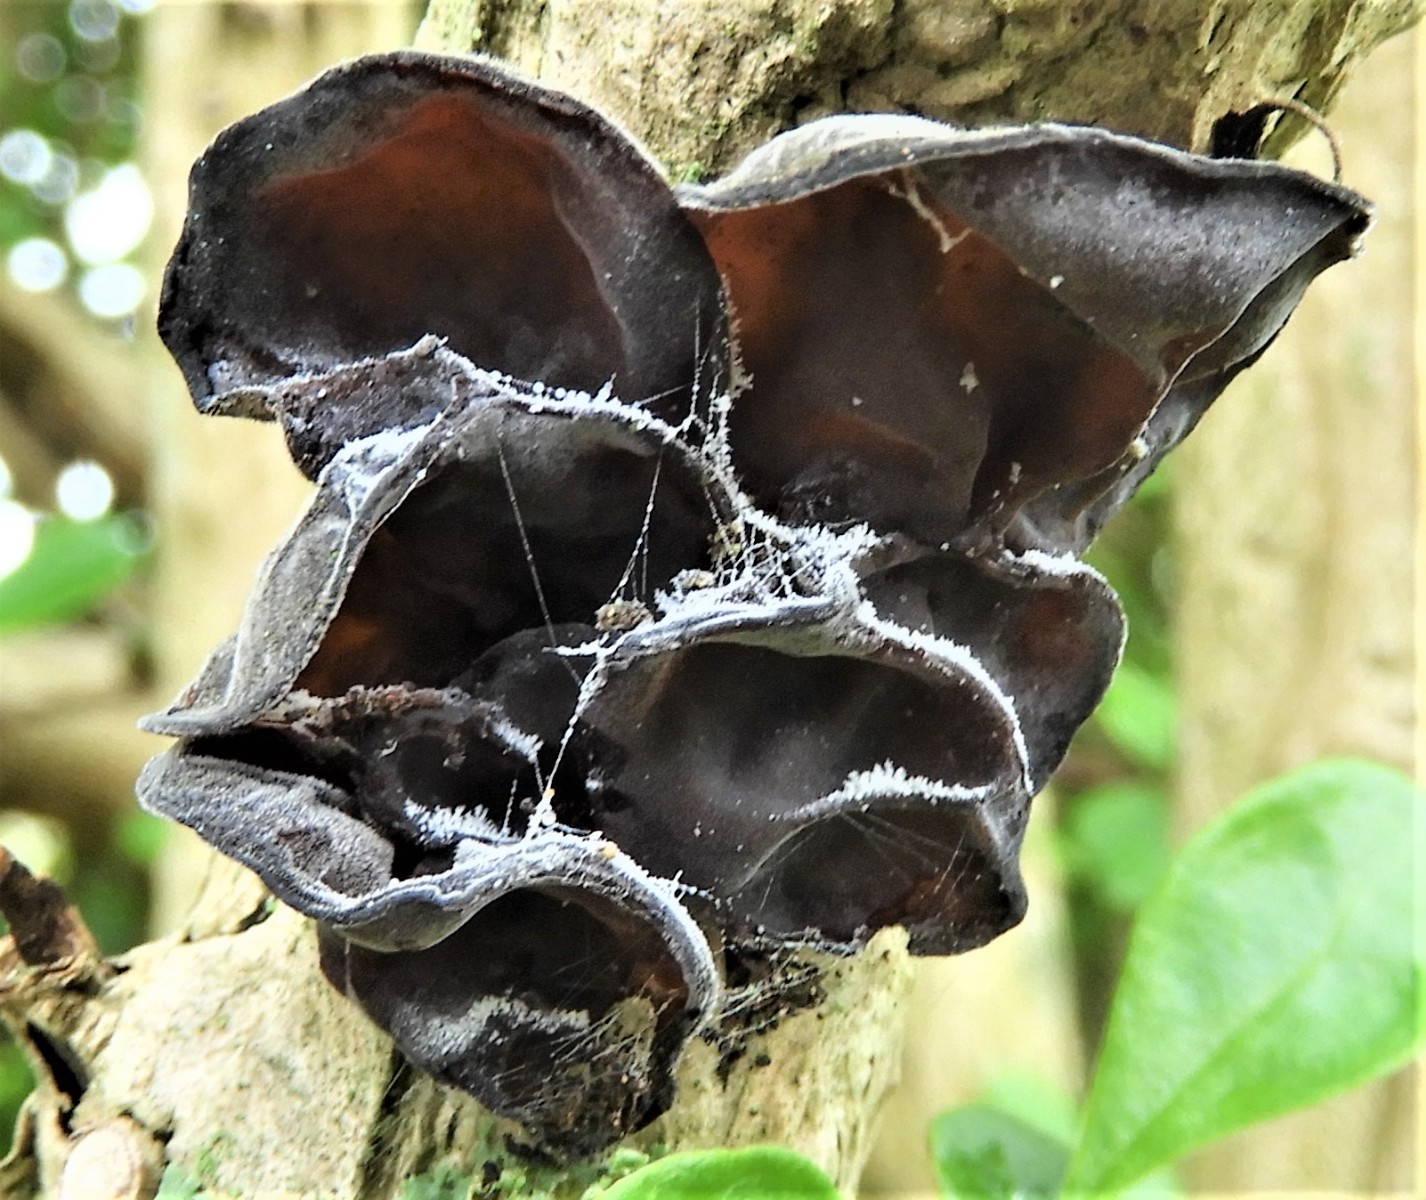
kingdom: Fungi
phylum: Basidiomycota
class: Agaricomycetes
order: Auriculariales
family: Auriculariaceae
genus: Auricularia
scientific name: Auricularia auricula-judae
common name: almindelig judasøre
